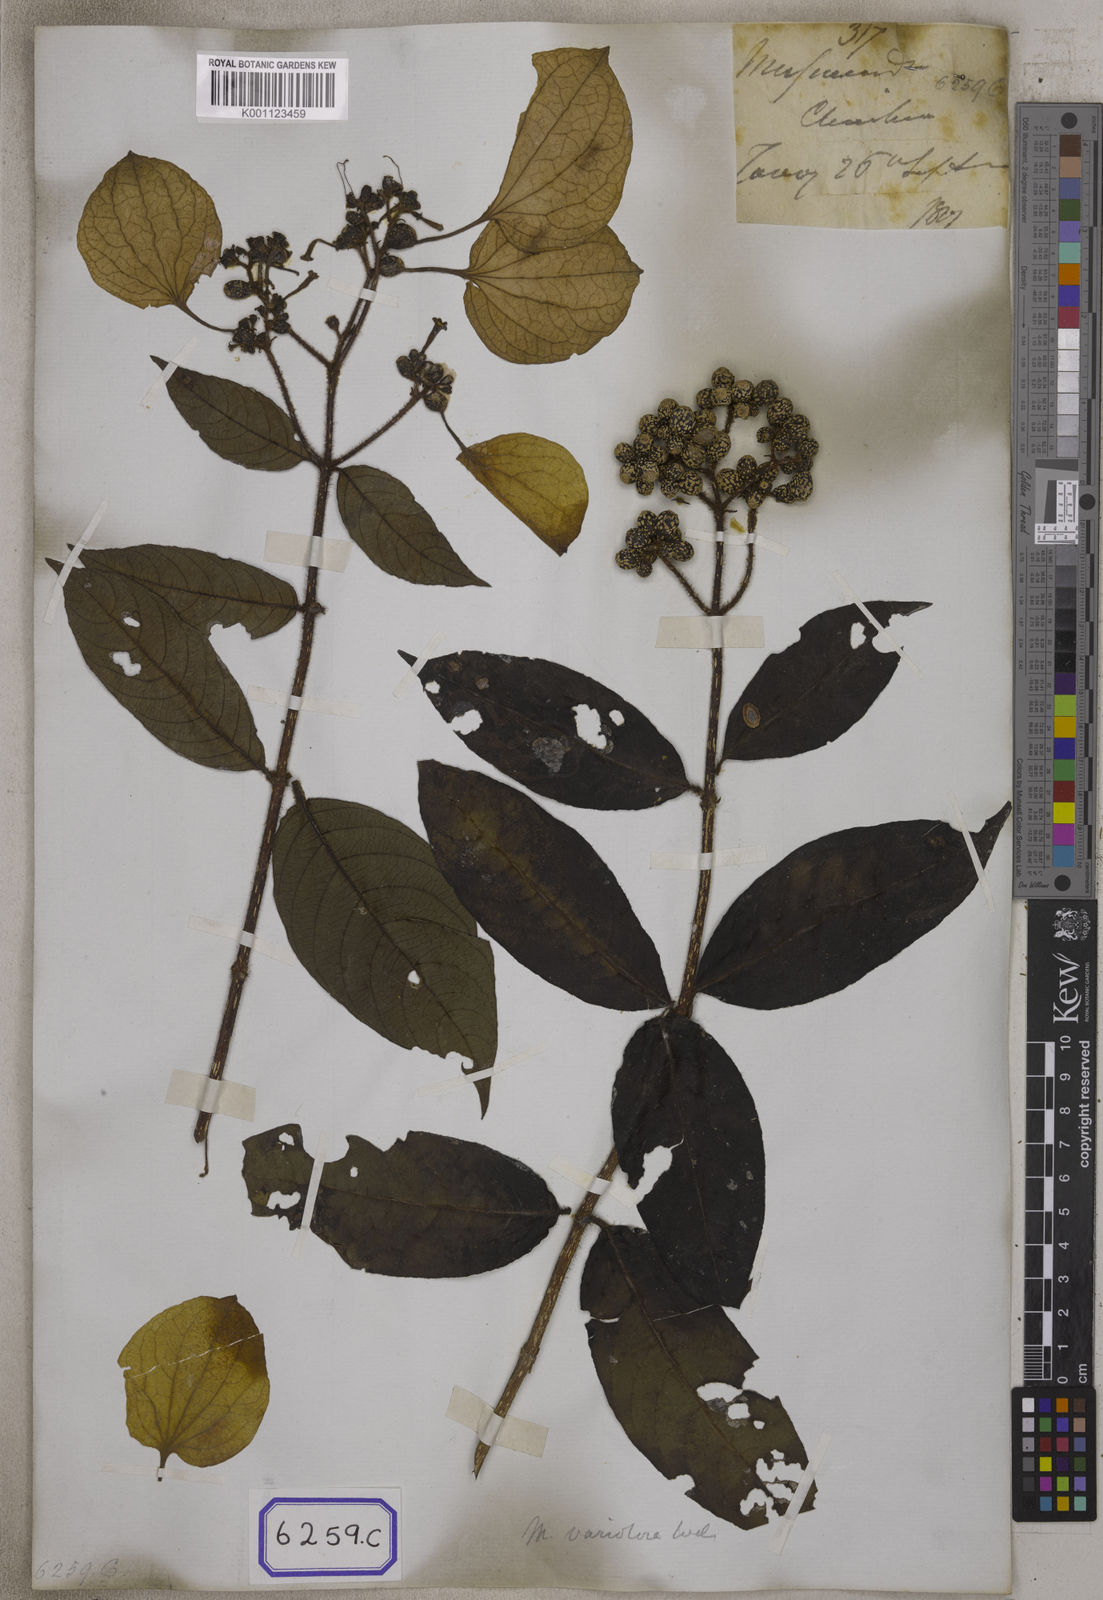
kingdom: Plantae
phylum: Tracheophyta
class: Magnoliopsida
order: Gentianales
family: Rubiaceae
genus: Mussaenda
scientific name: Mussaenda
